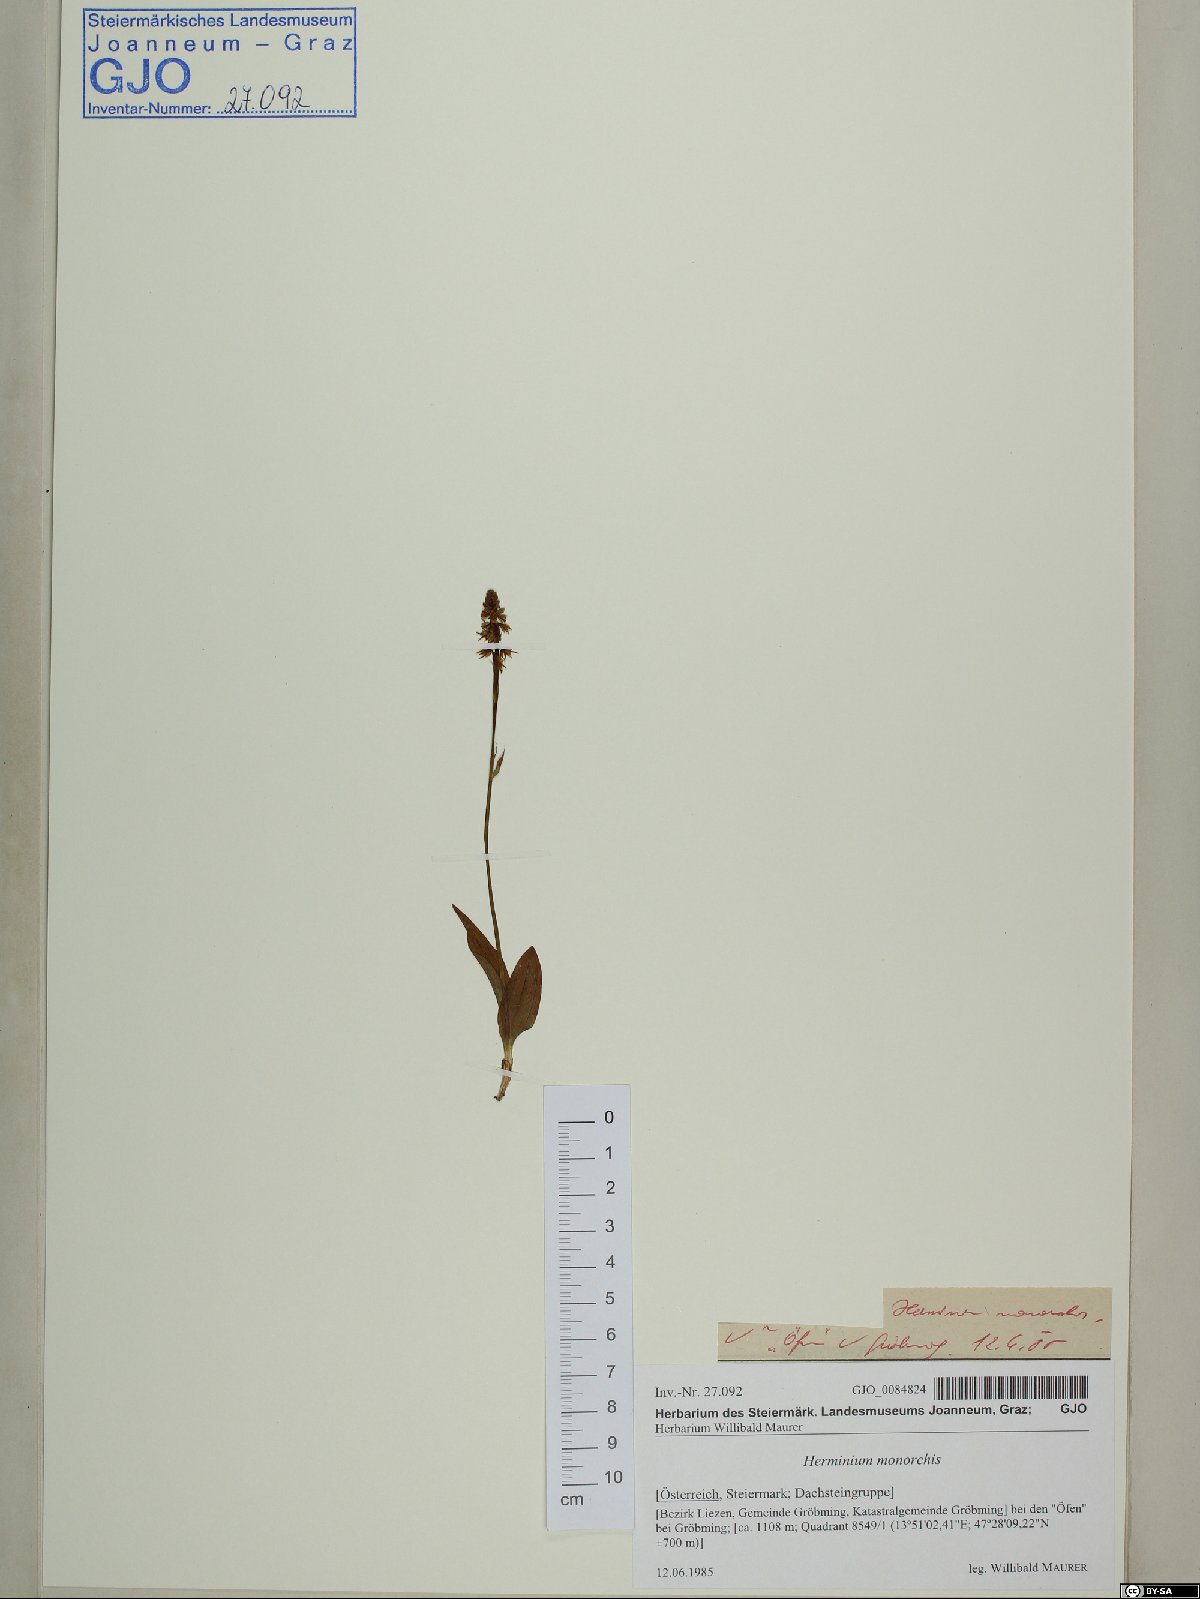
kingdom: Plantae
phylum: Tracheophyta
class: Liliopsida
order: Asparagales
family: Orchidaceae
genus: Herminium
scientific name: Herminium monorchis
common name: Musk orchid
